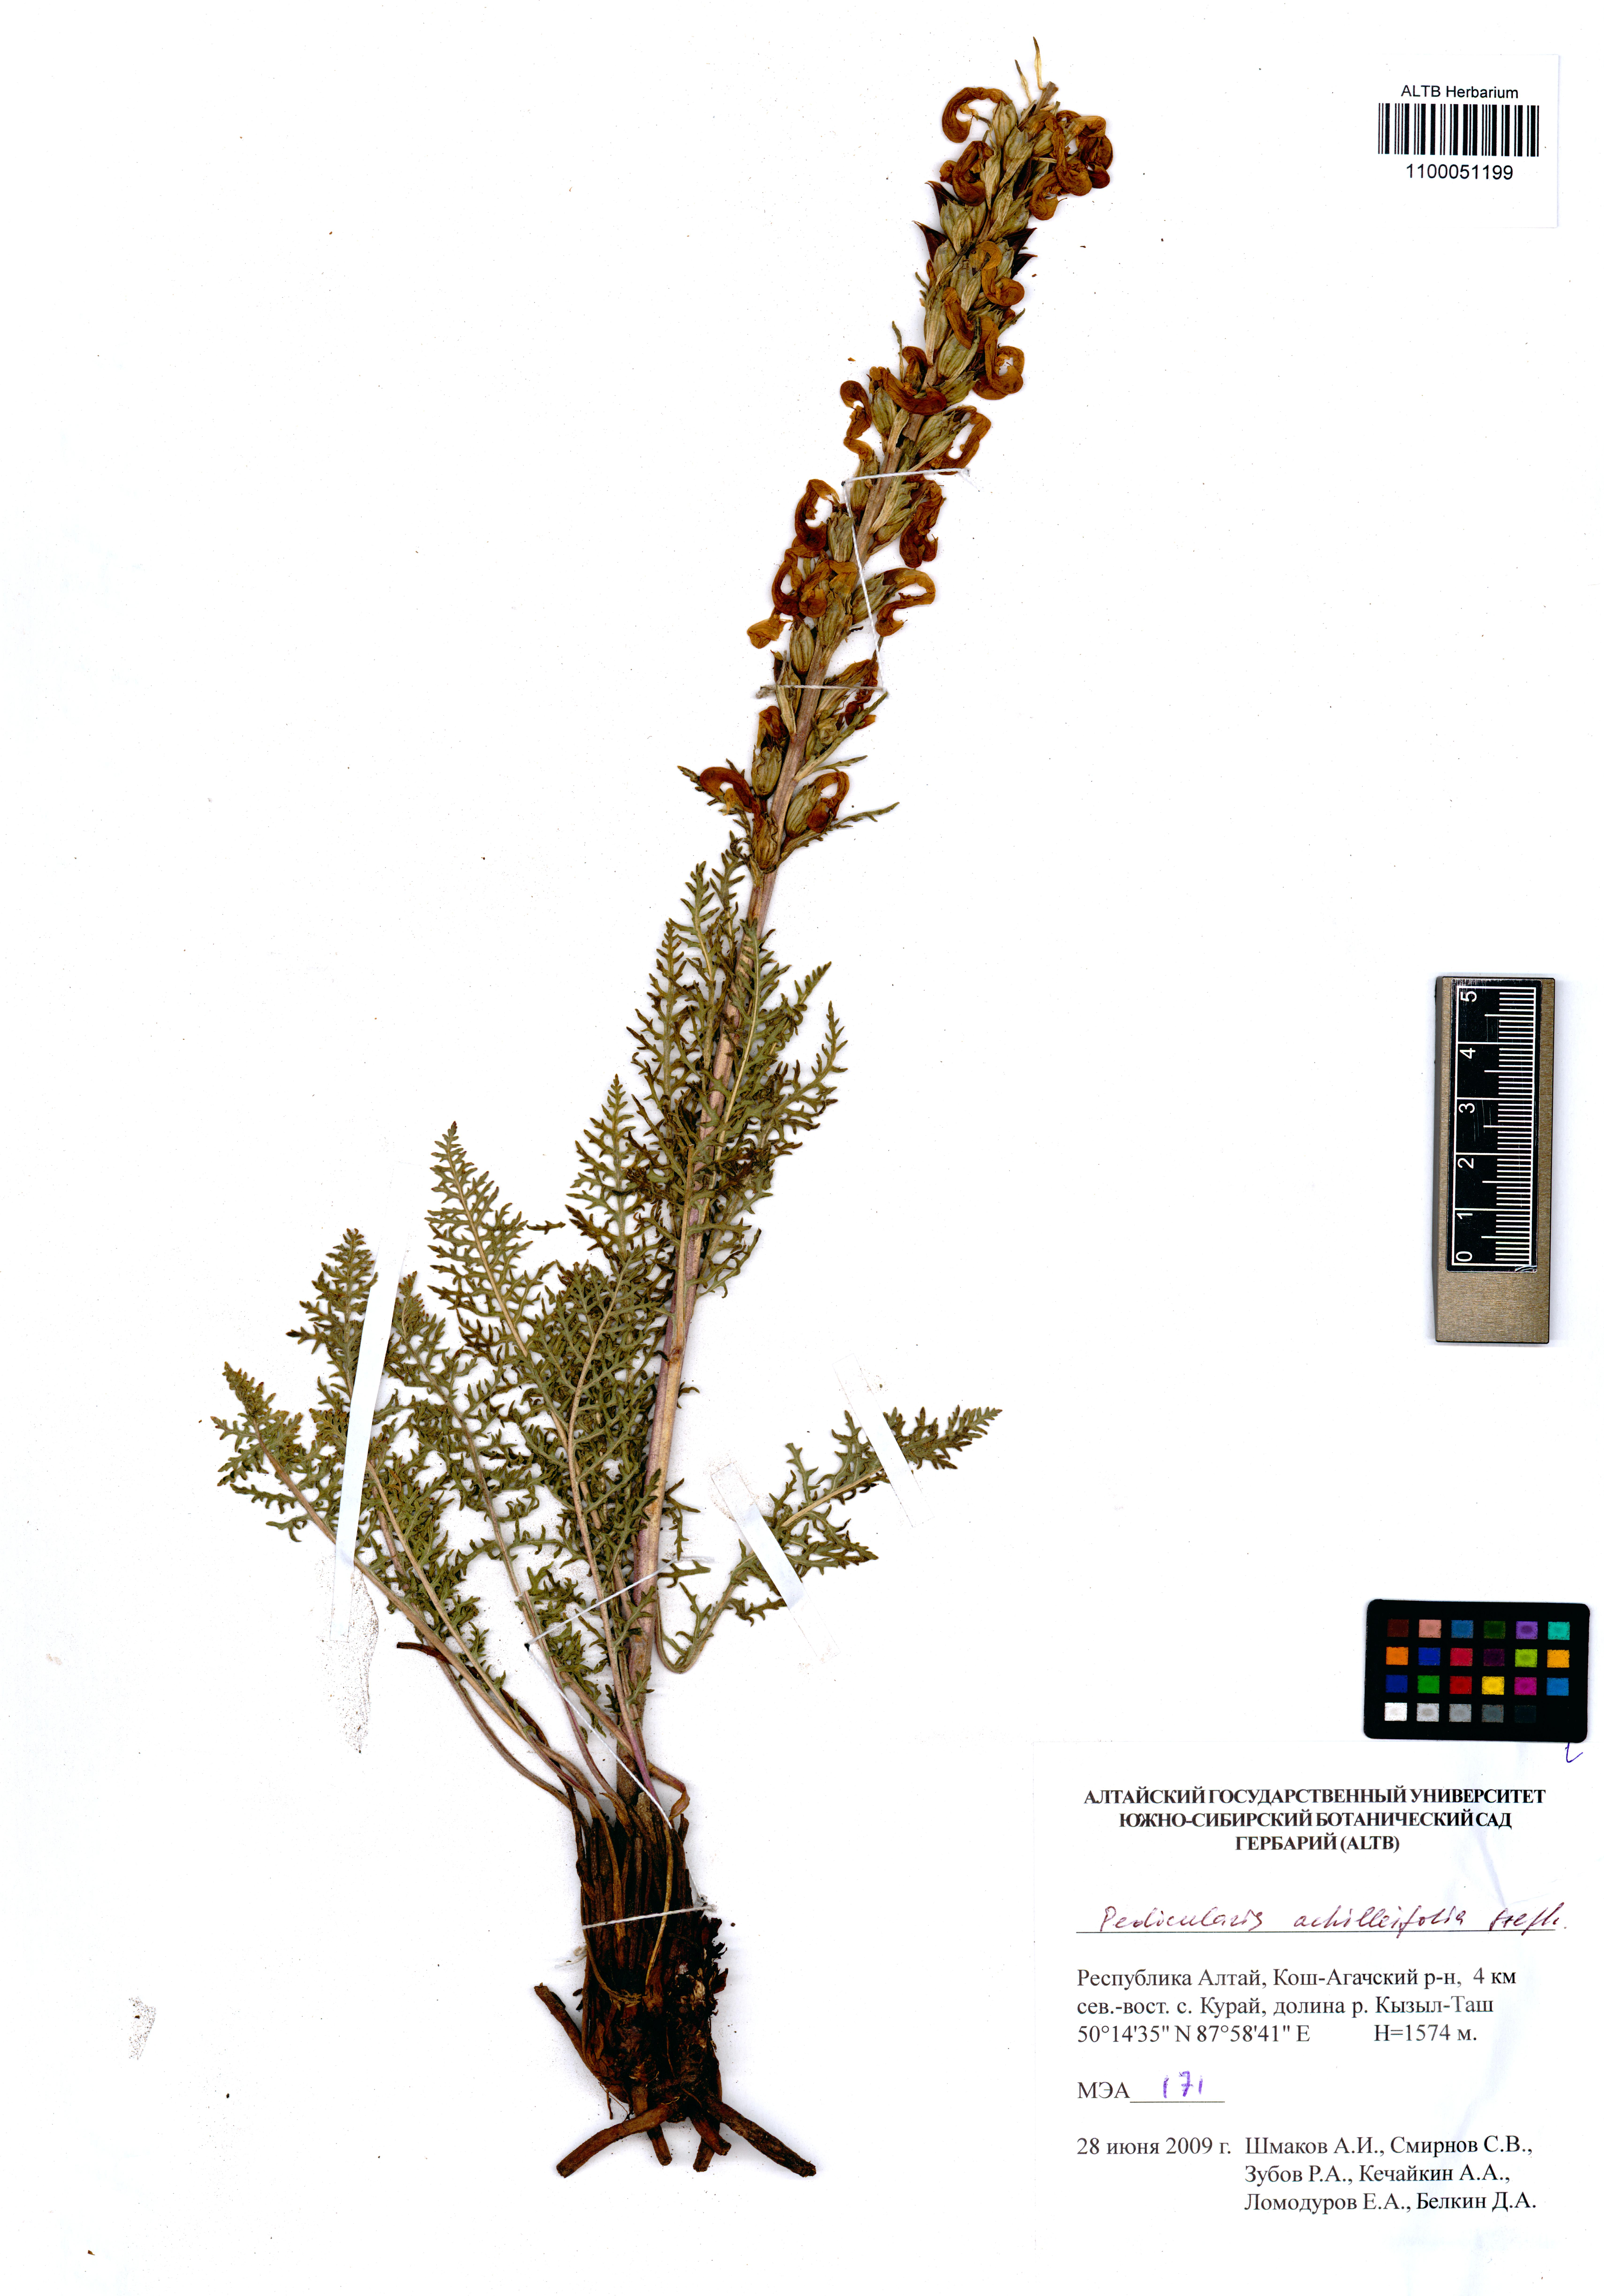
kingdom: Plantae
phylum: Tracheophyta
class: Magnoliopsida
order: Lamiales
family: Orobanchaceae
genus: Pedicularis
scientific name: Pedicularis achilleifolia
